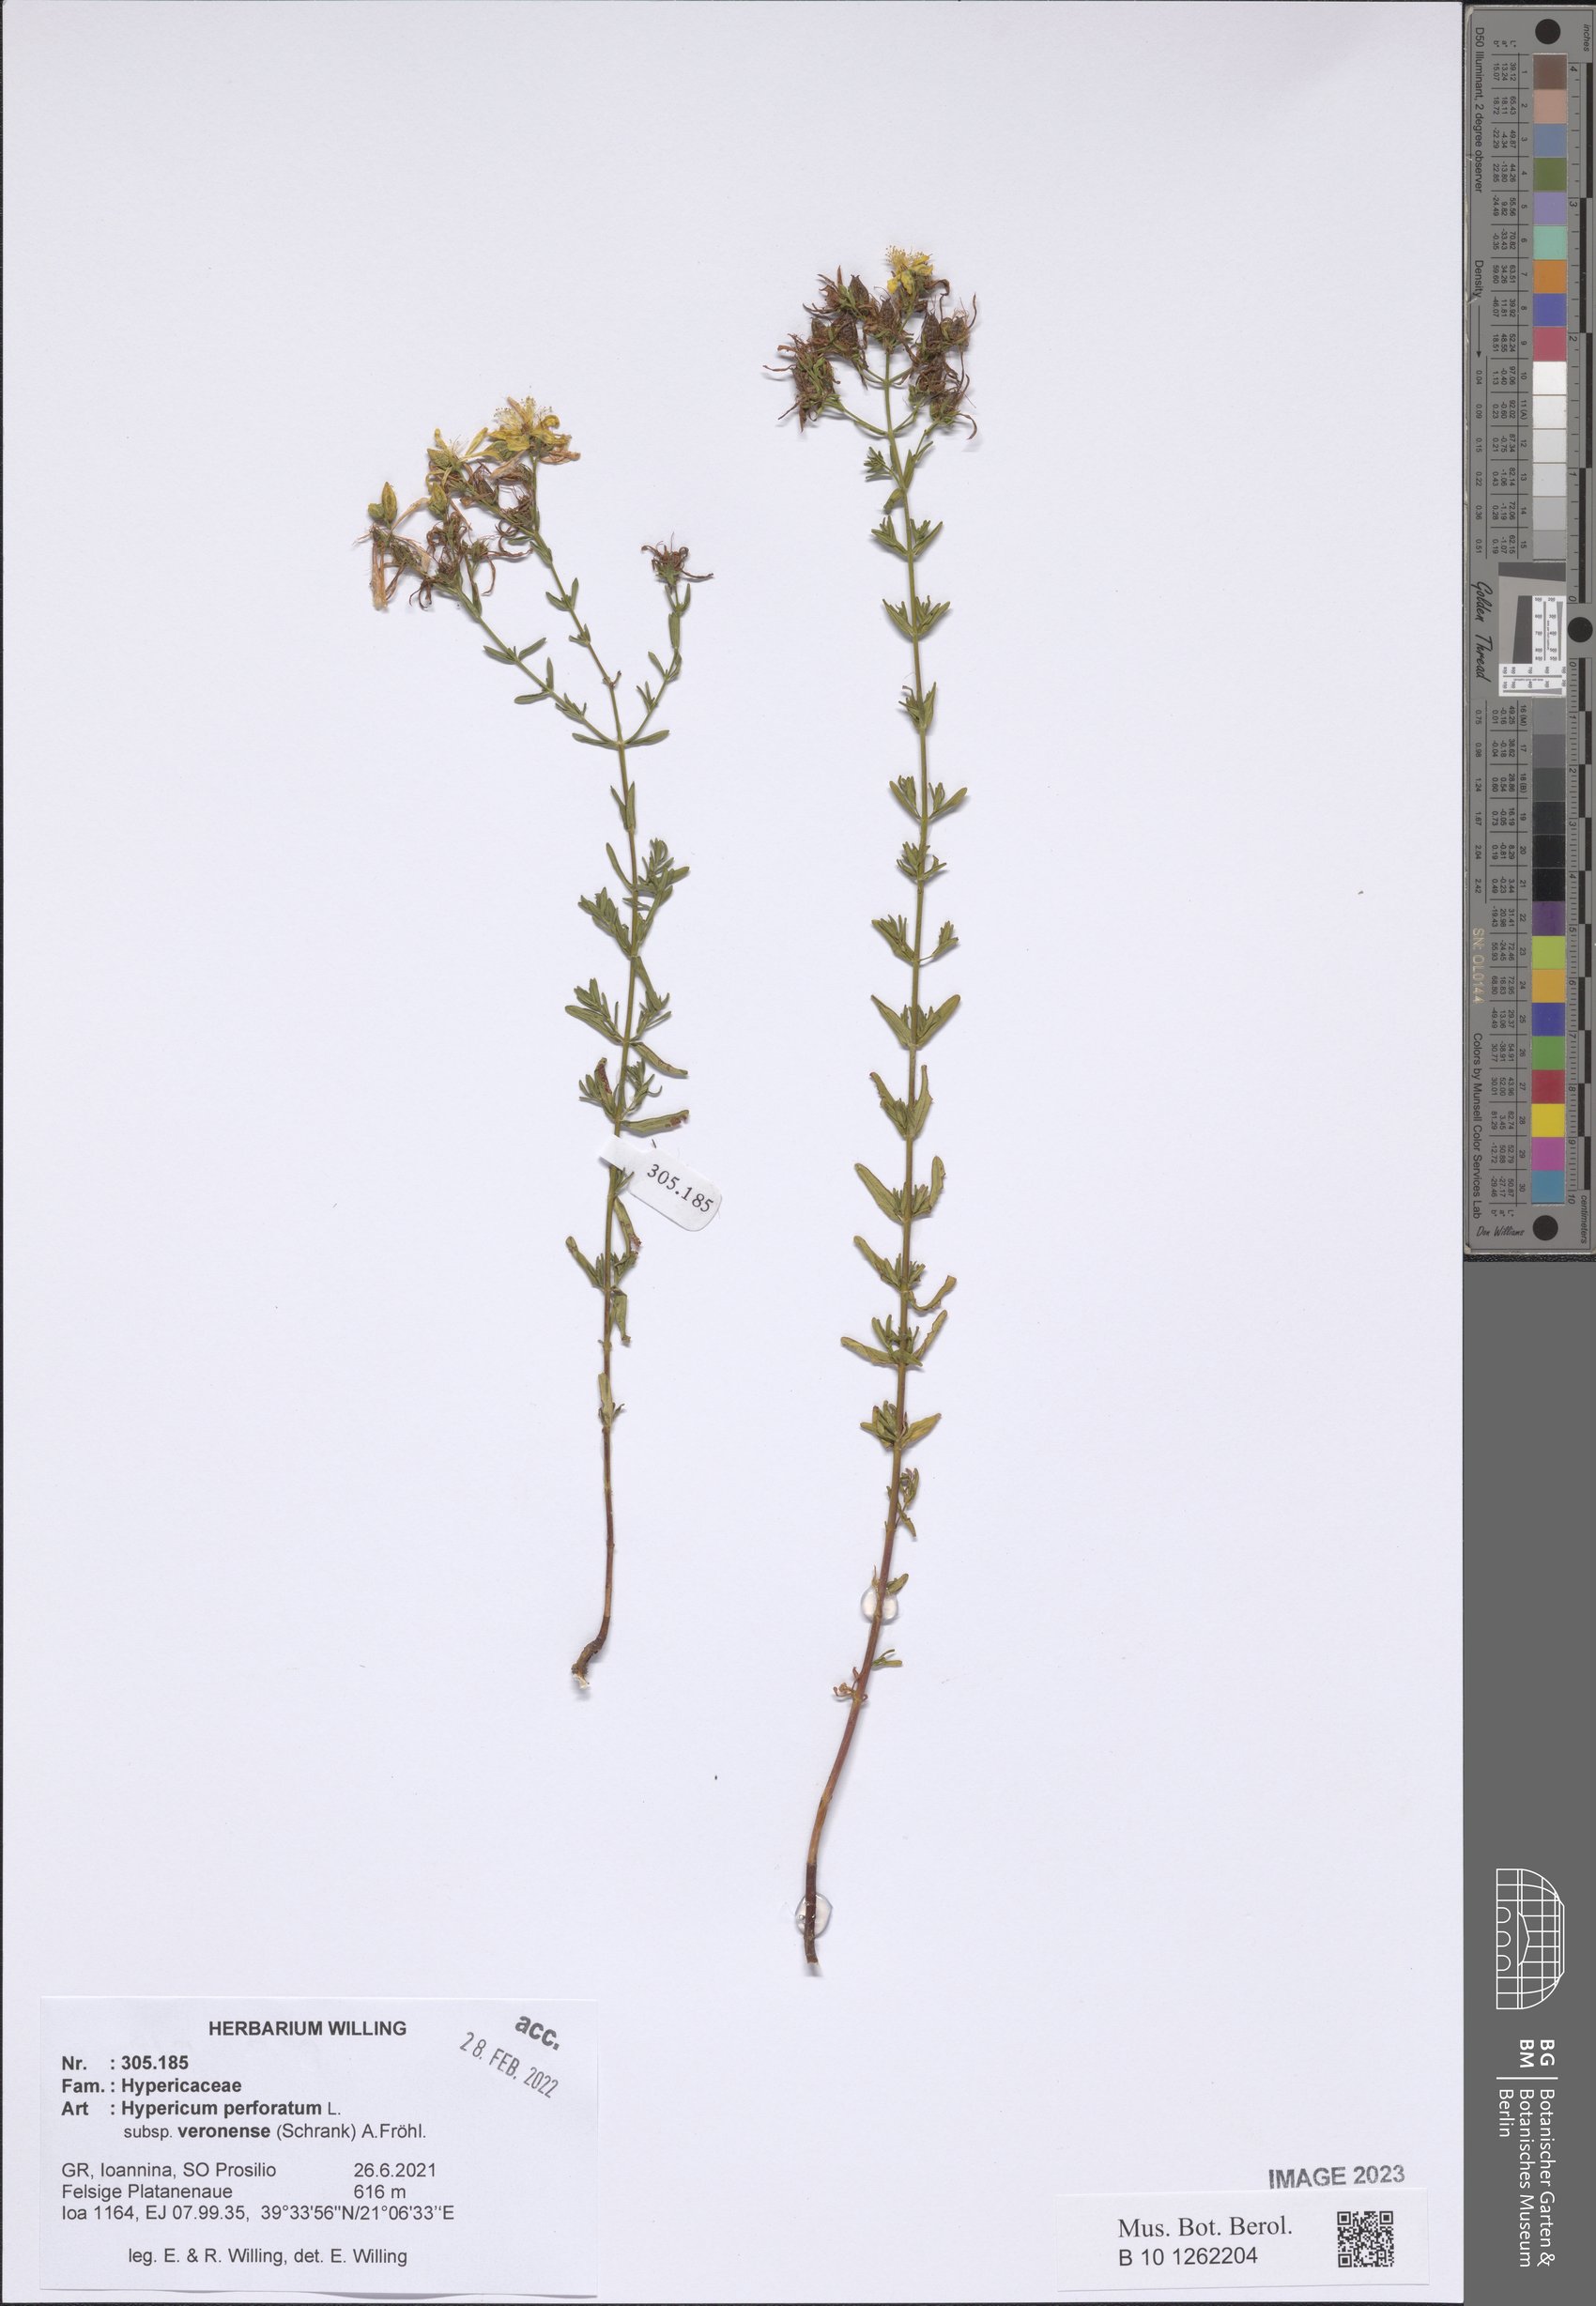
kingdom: Plantae
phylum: Tracheophyta
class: Magnoliopsida
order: Malpighiales
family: Hypericaceae
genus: Hypericum
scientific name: Hypericum veronense
